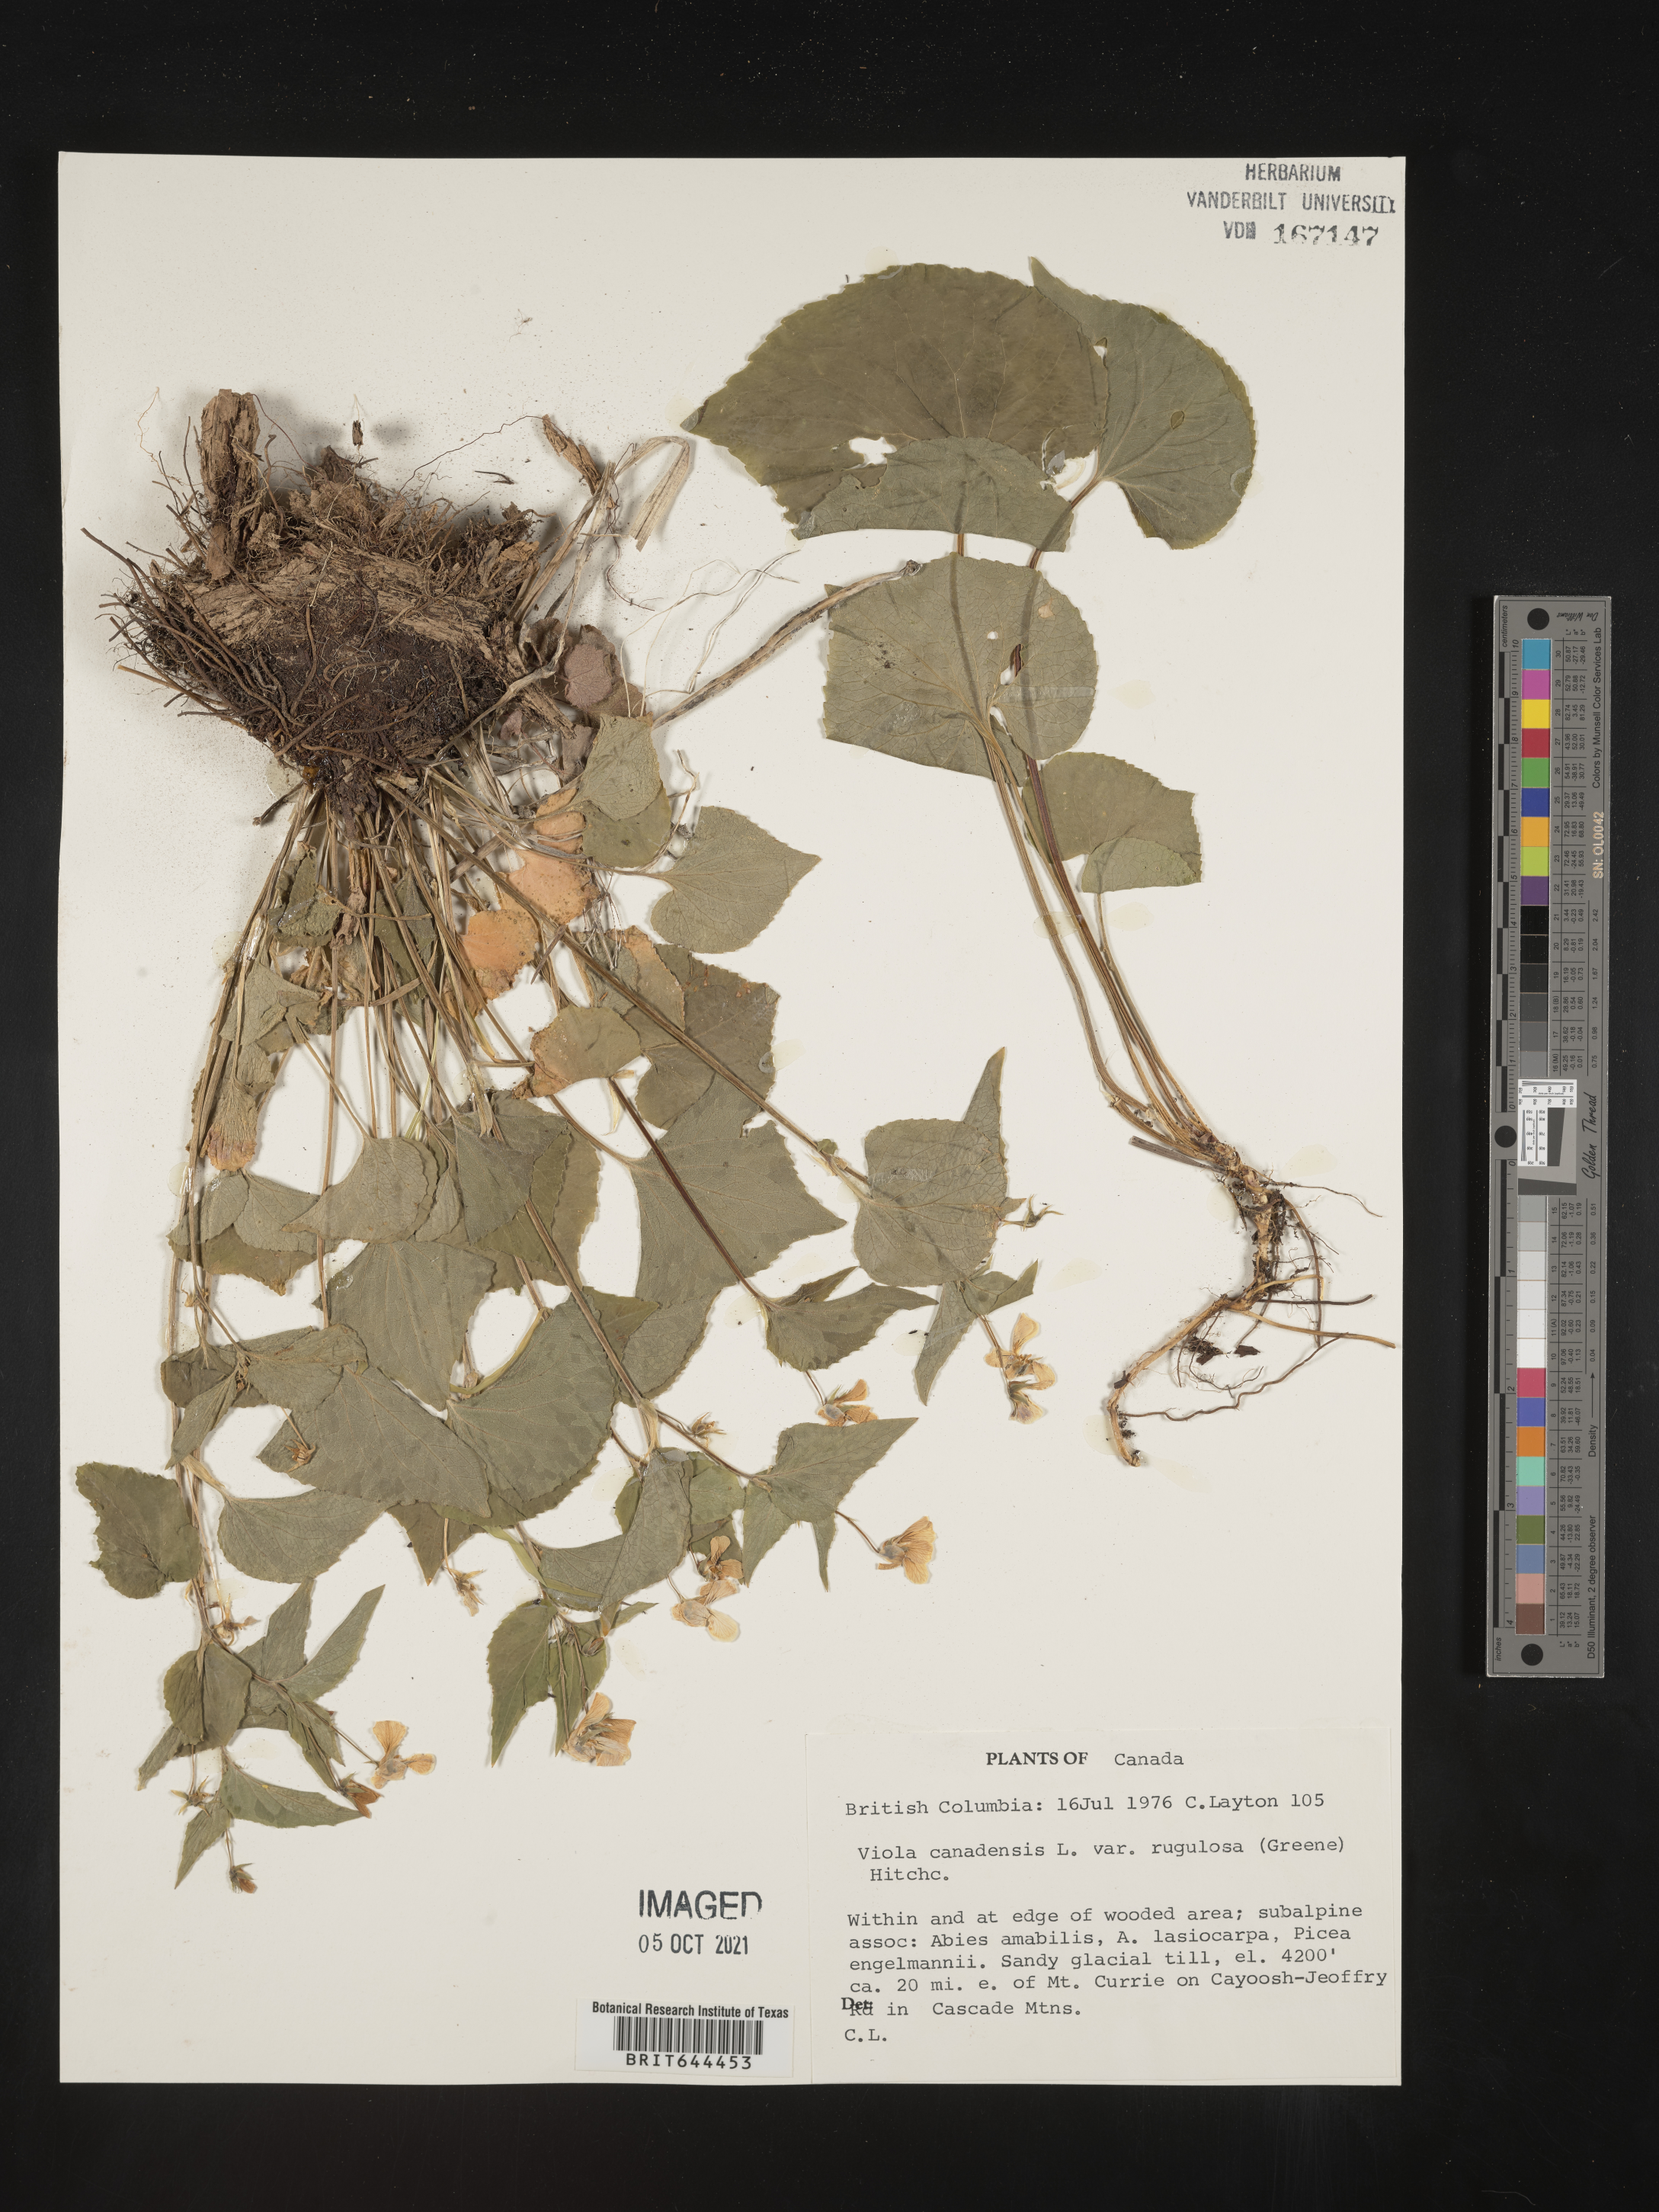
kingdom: Plantae
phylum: Tracheophyta
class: Magnoliopsida
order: Malpighiales
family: Violaceae
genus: Viola
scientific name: Viola
